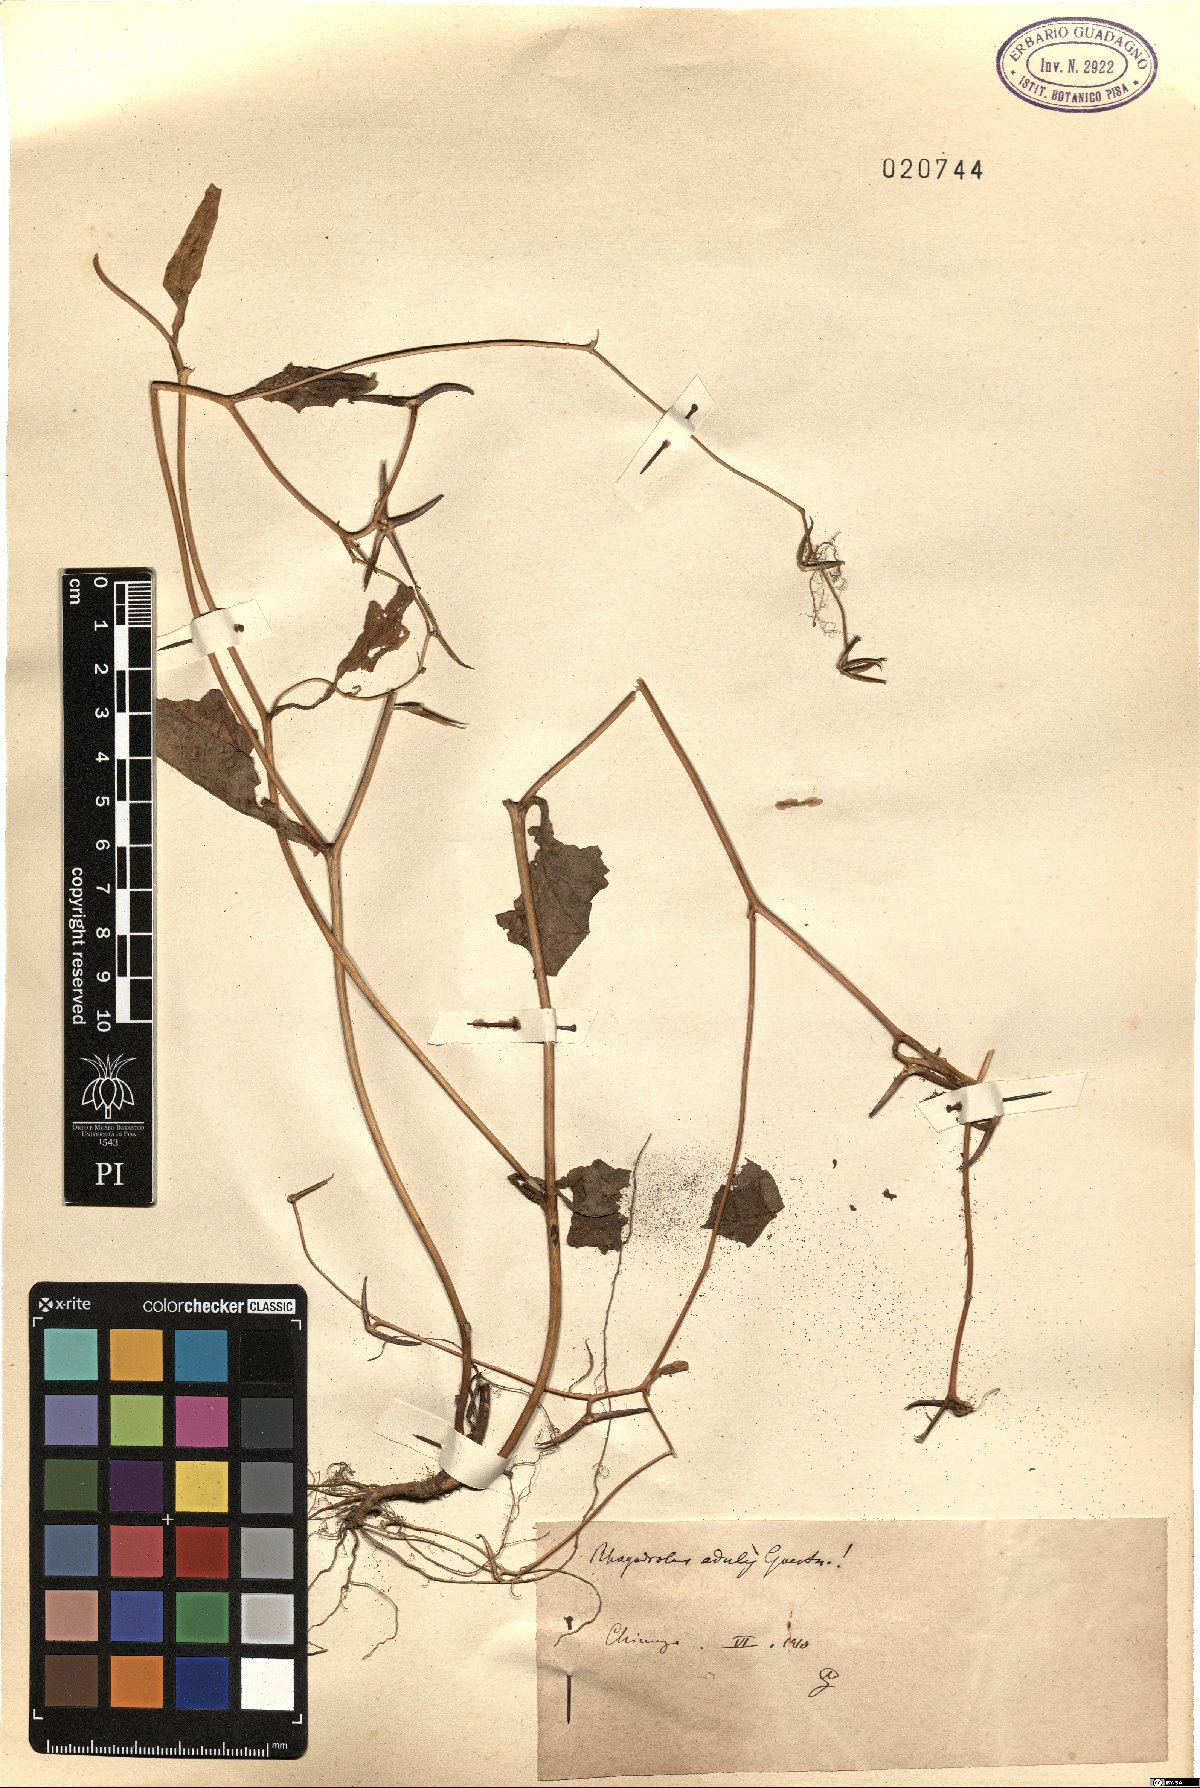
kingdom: Plantae
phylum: Tracheophyta
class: Magnoliopsida
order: Asterales
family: Asteraceae
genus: Rhagadiolus
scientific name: Rhagadiolus edulis
